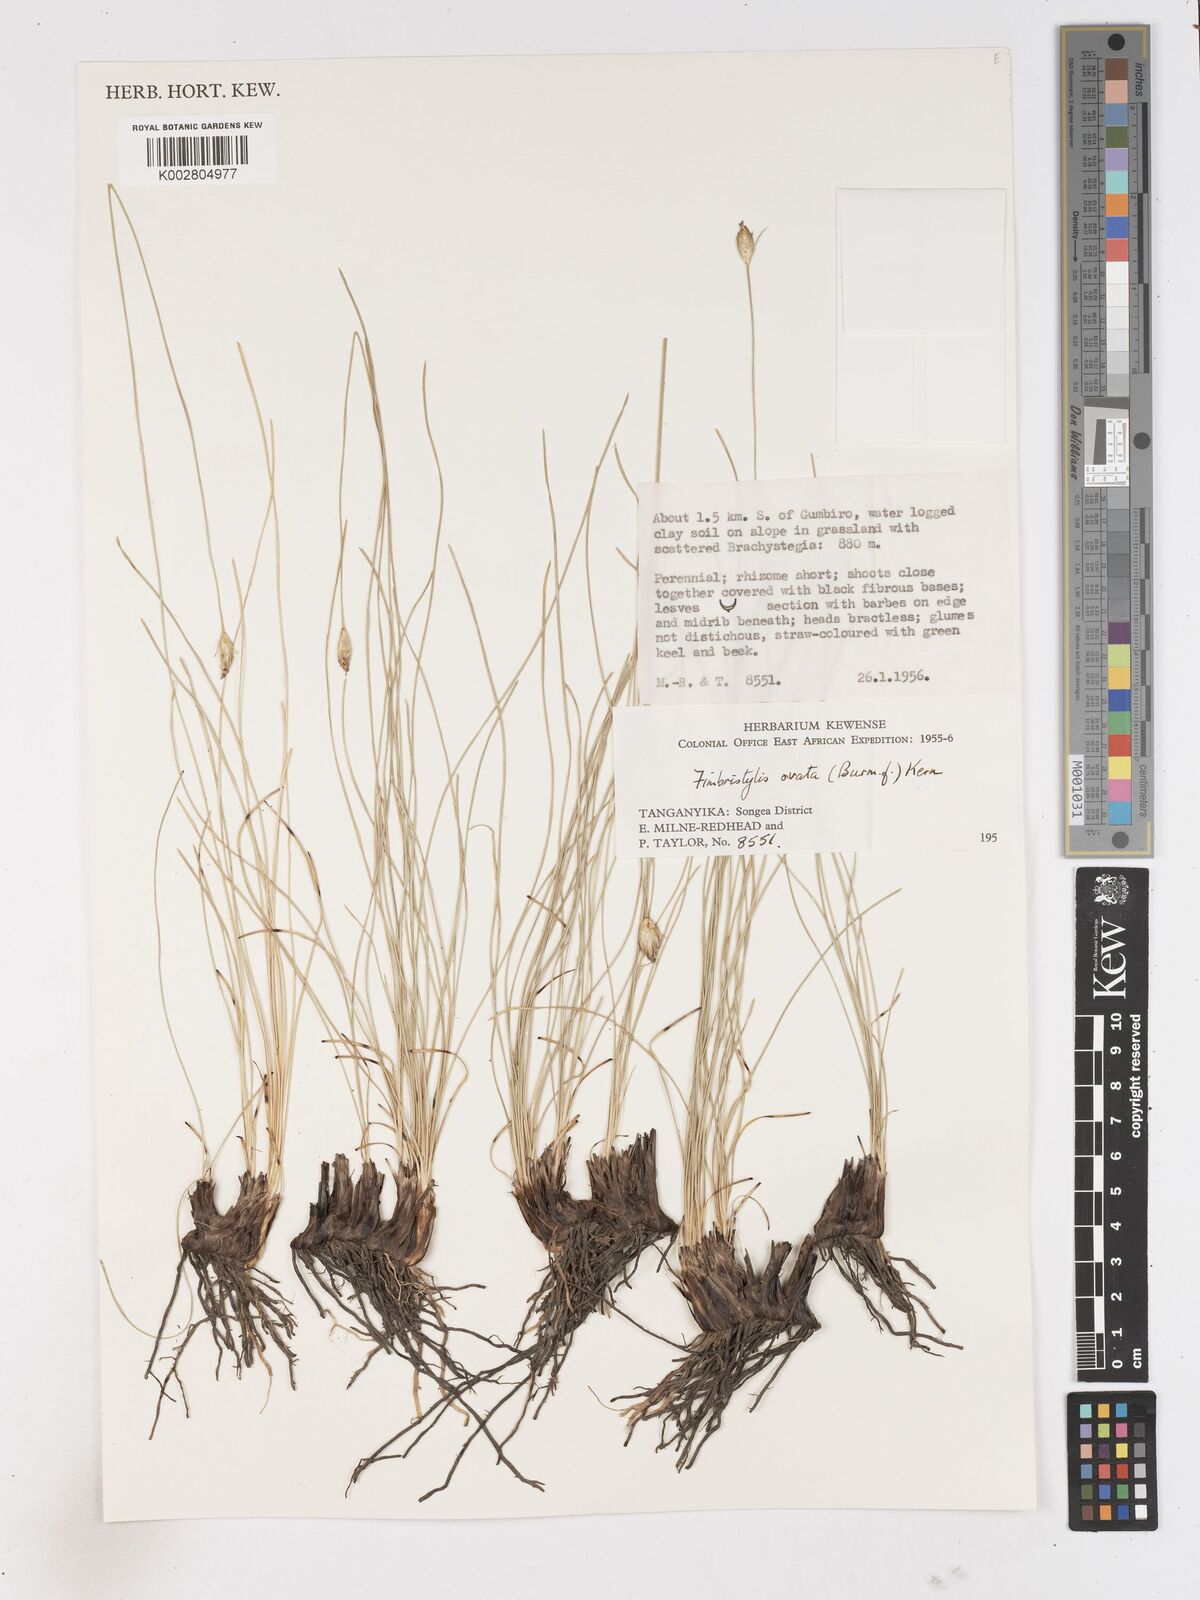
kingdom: Plantae
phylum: Tracheophyta
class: Liliopsida
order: Poales
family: Cyperaceae
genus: Abildgaardia
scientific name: Abildgaardia ovata
